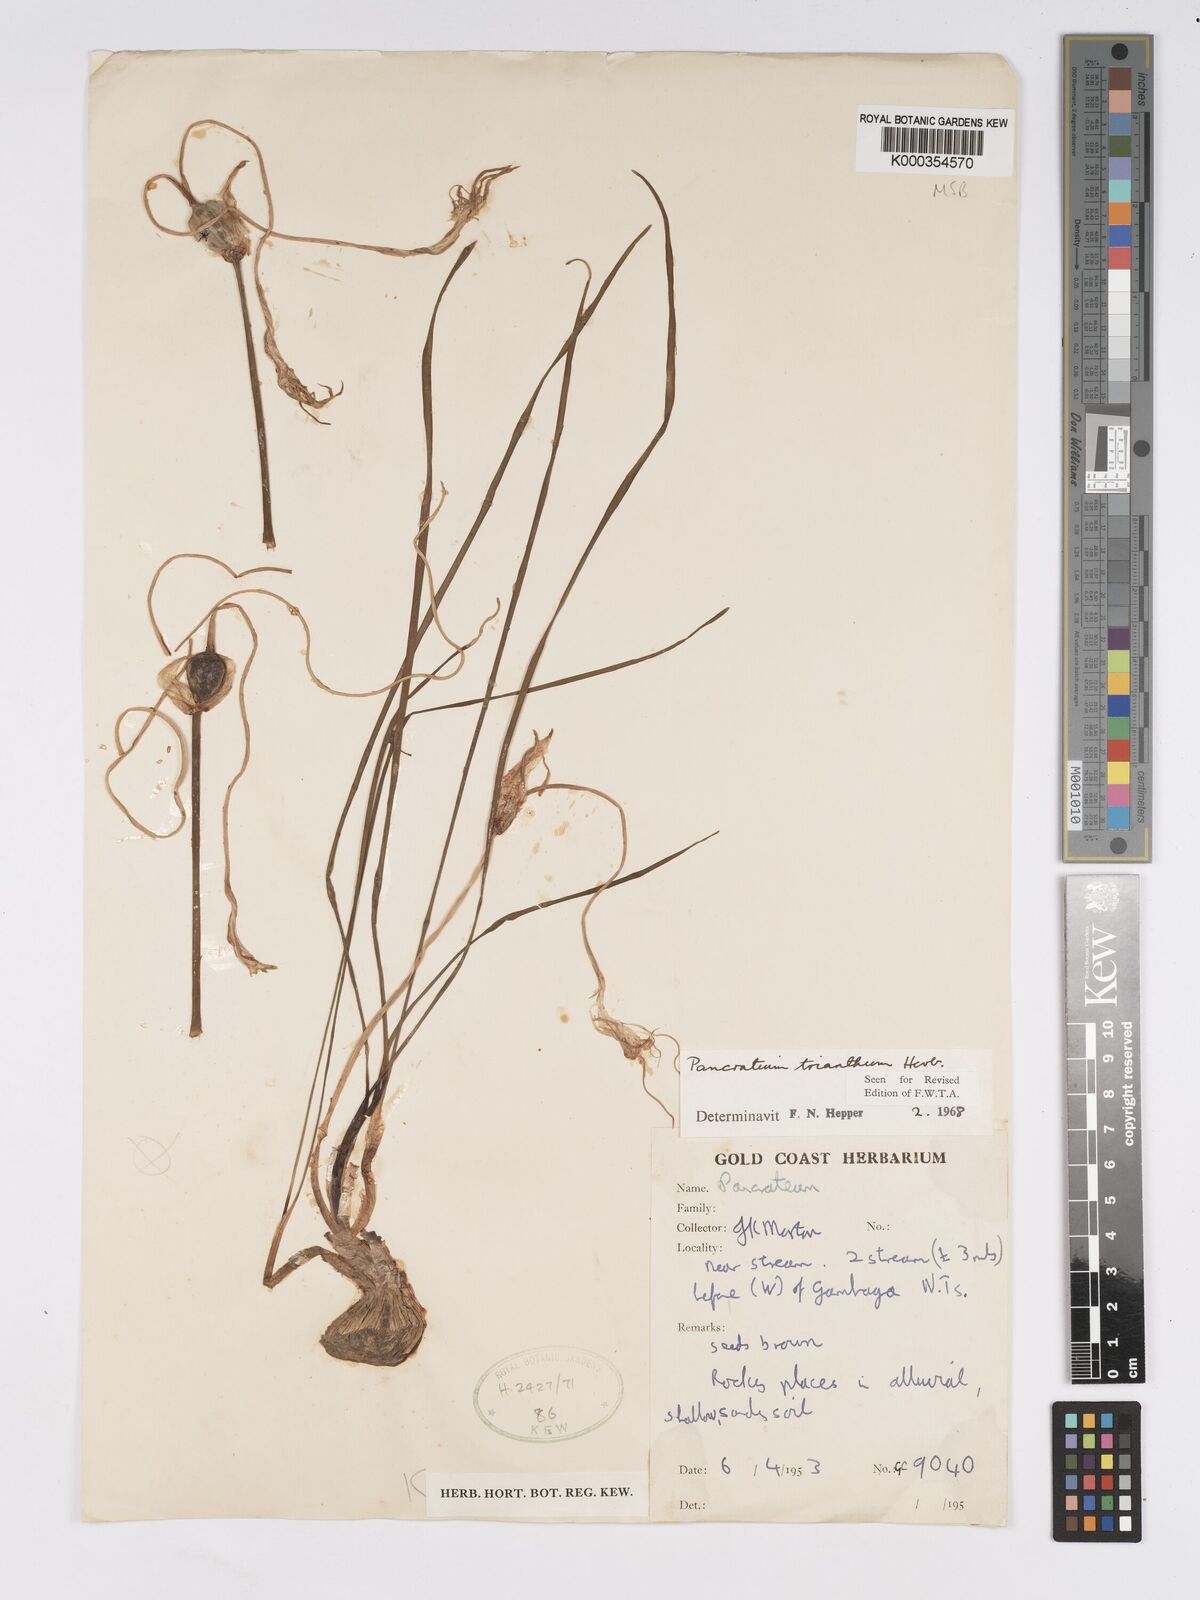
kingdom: Plantae
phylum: Tracheophyta
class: Liliopsida
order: Asparagales
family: Amaryllidaceae
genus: Pancratium
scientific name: Pancratium trianthum
